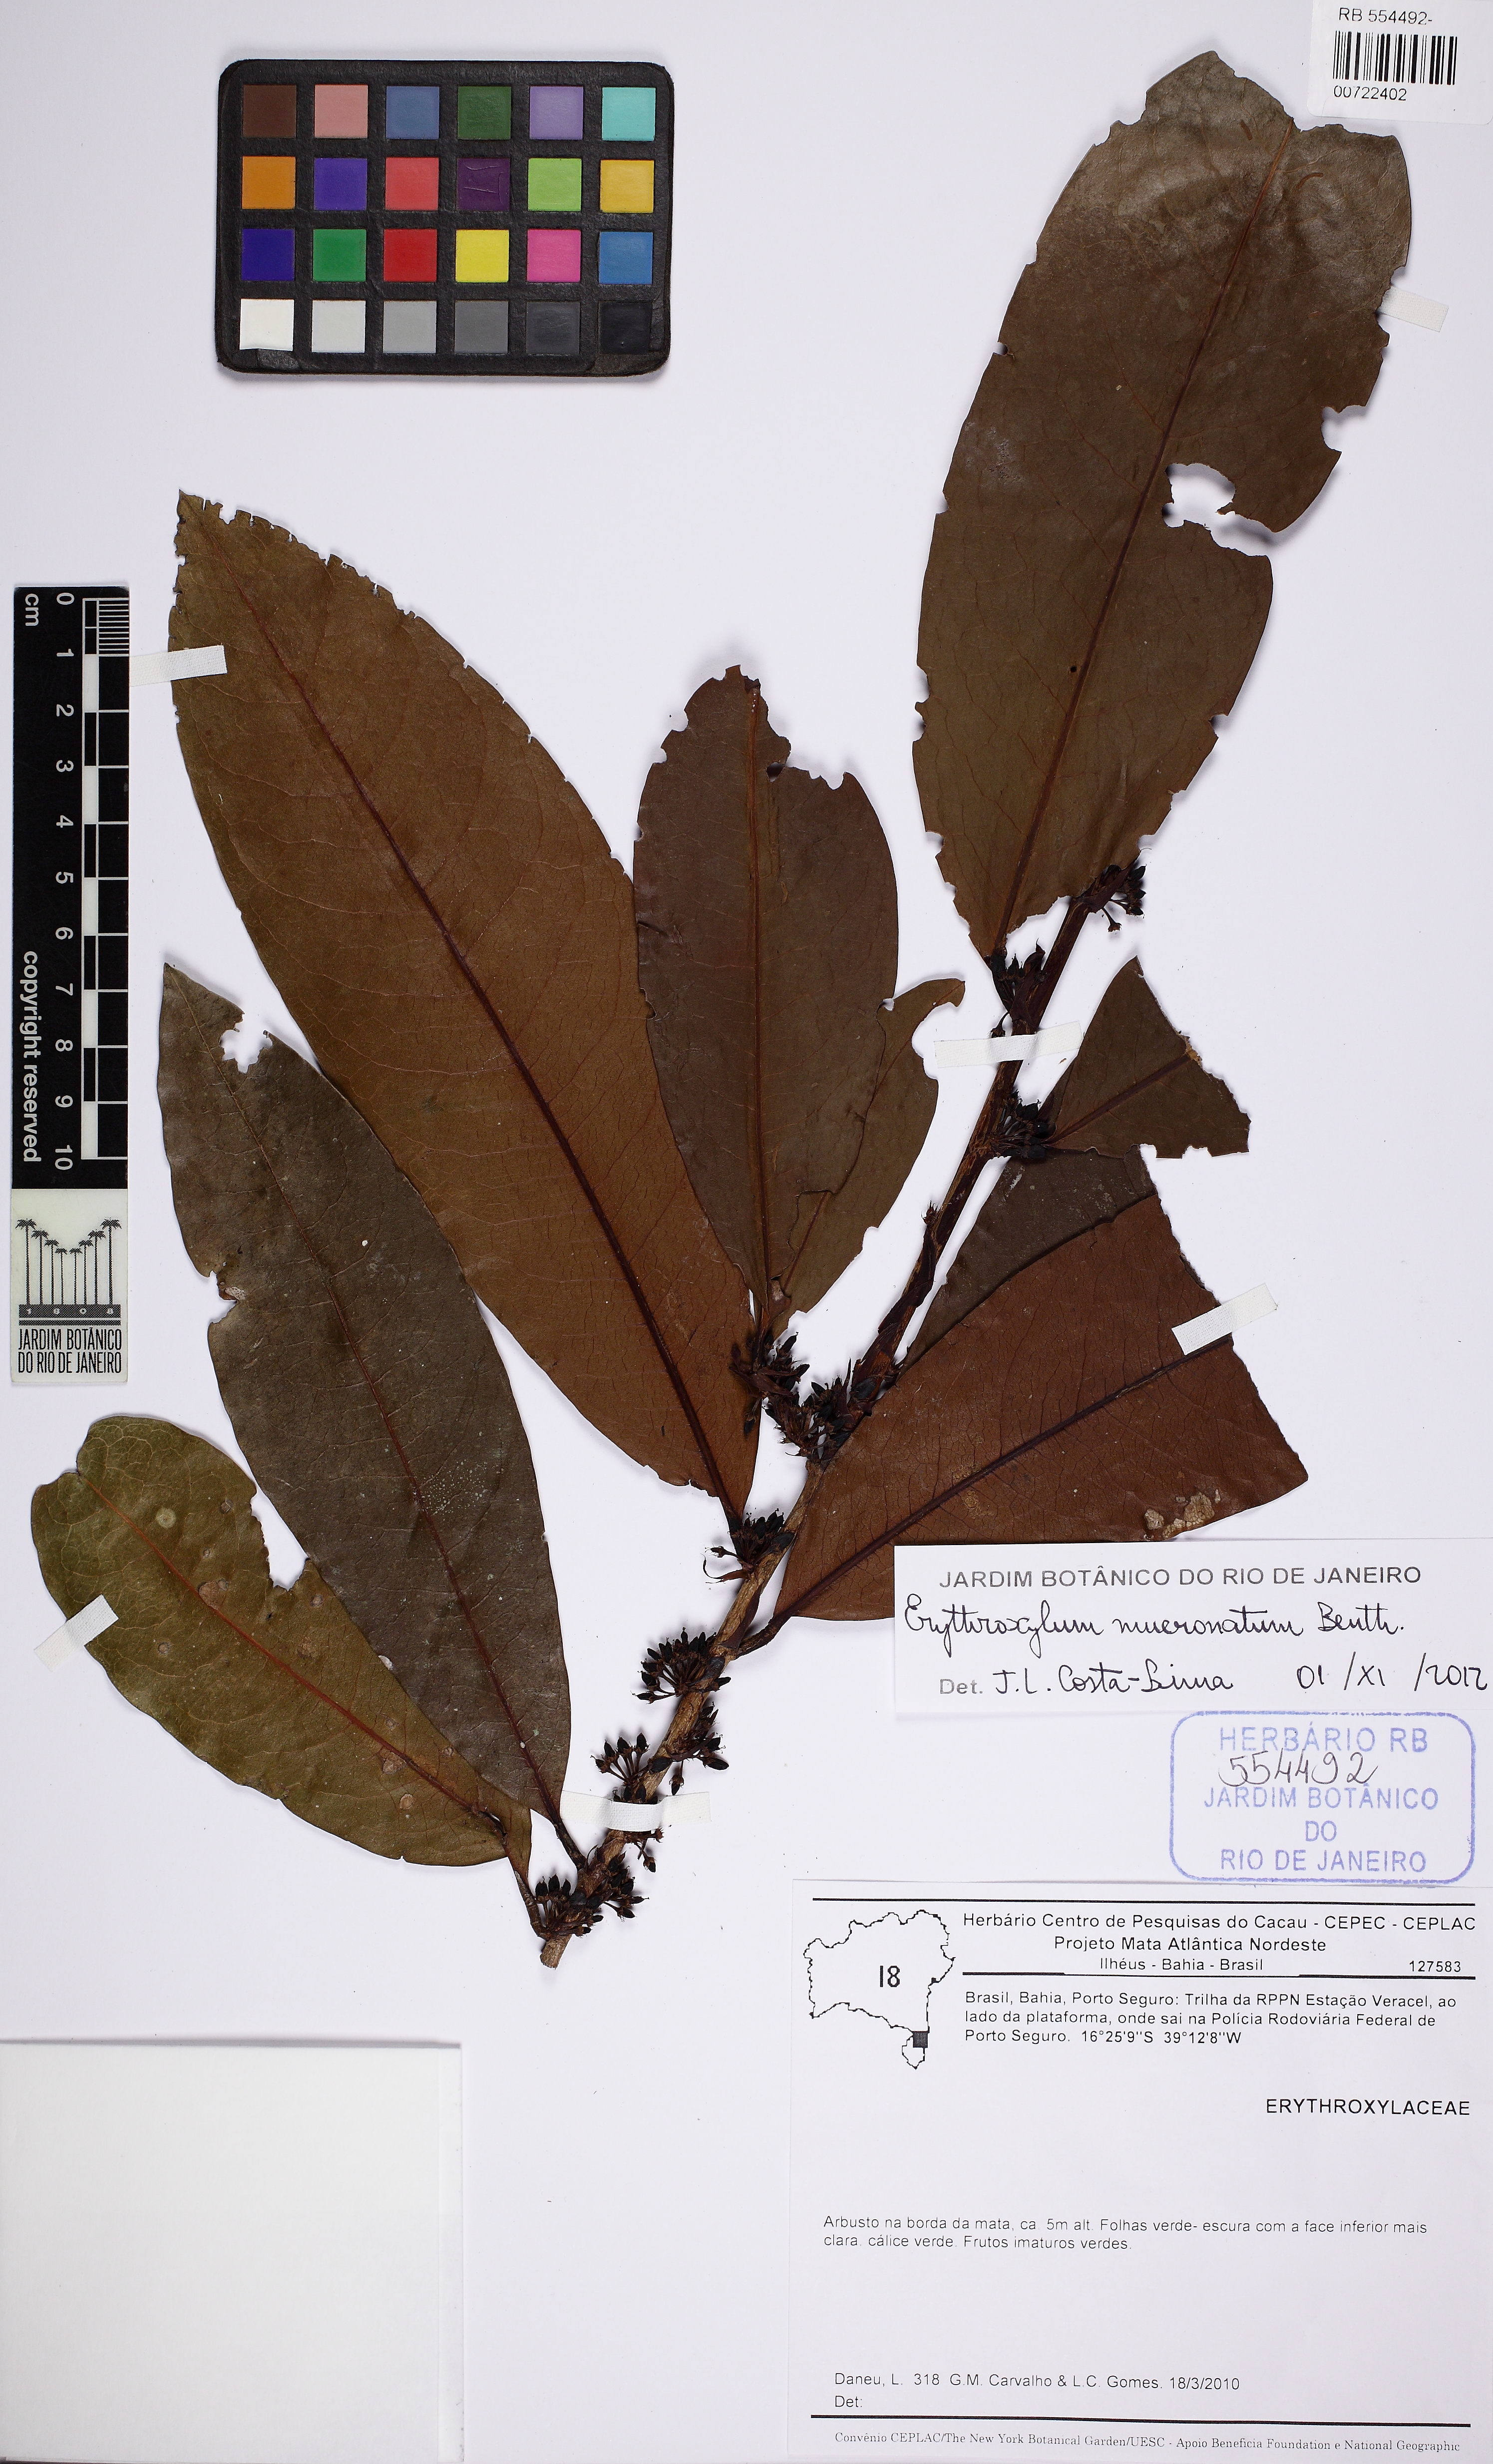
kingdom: Plantae
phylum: Tracheophyta
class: Magnoliopsida
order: Malpighiales
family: Erythroxylaceae
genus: Erythroxylum
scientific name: Erythroxylum mucronatum
